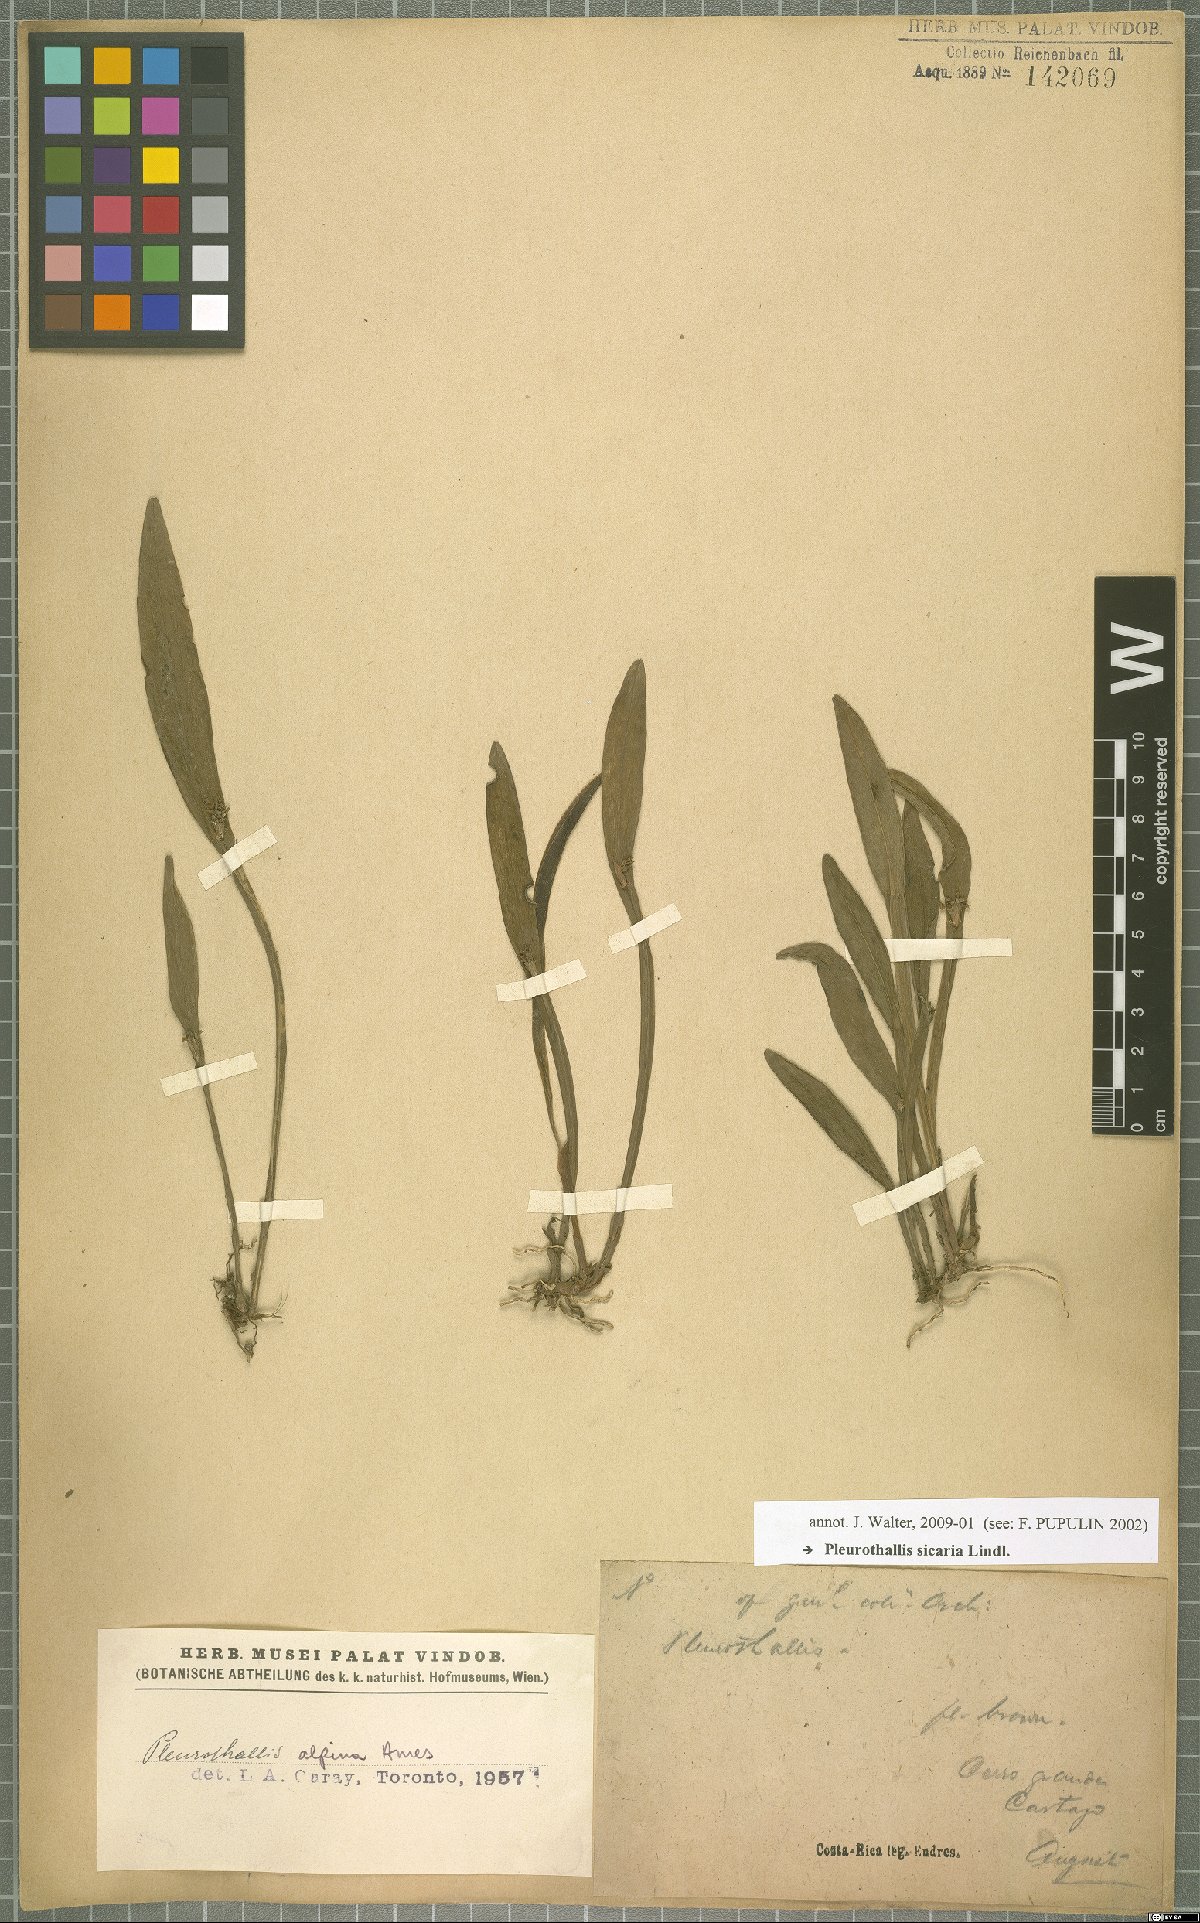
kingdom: Plantae
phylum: Tracheophyta
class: Liliopsida
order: Asparagales
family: Orchidaceae
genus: Acianthera
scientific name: Acianthera sicaria
